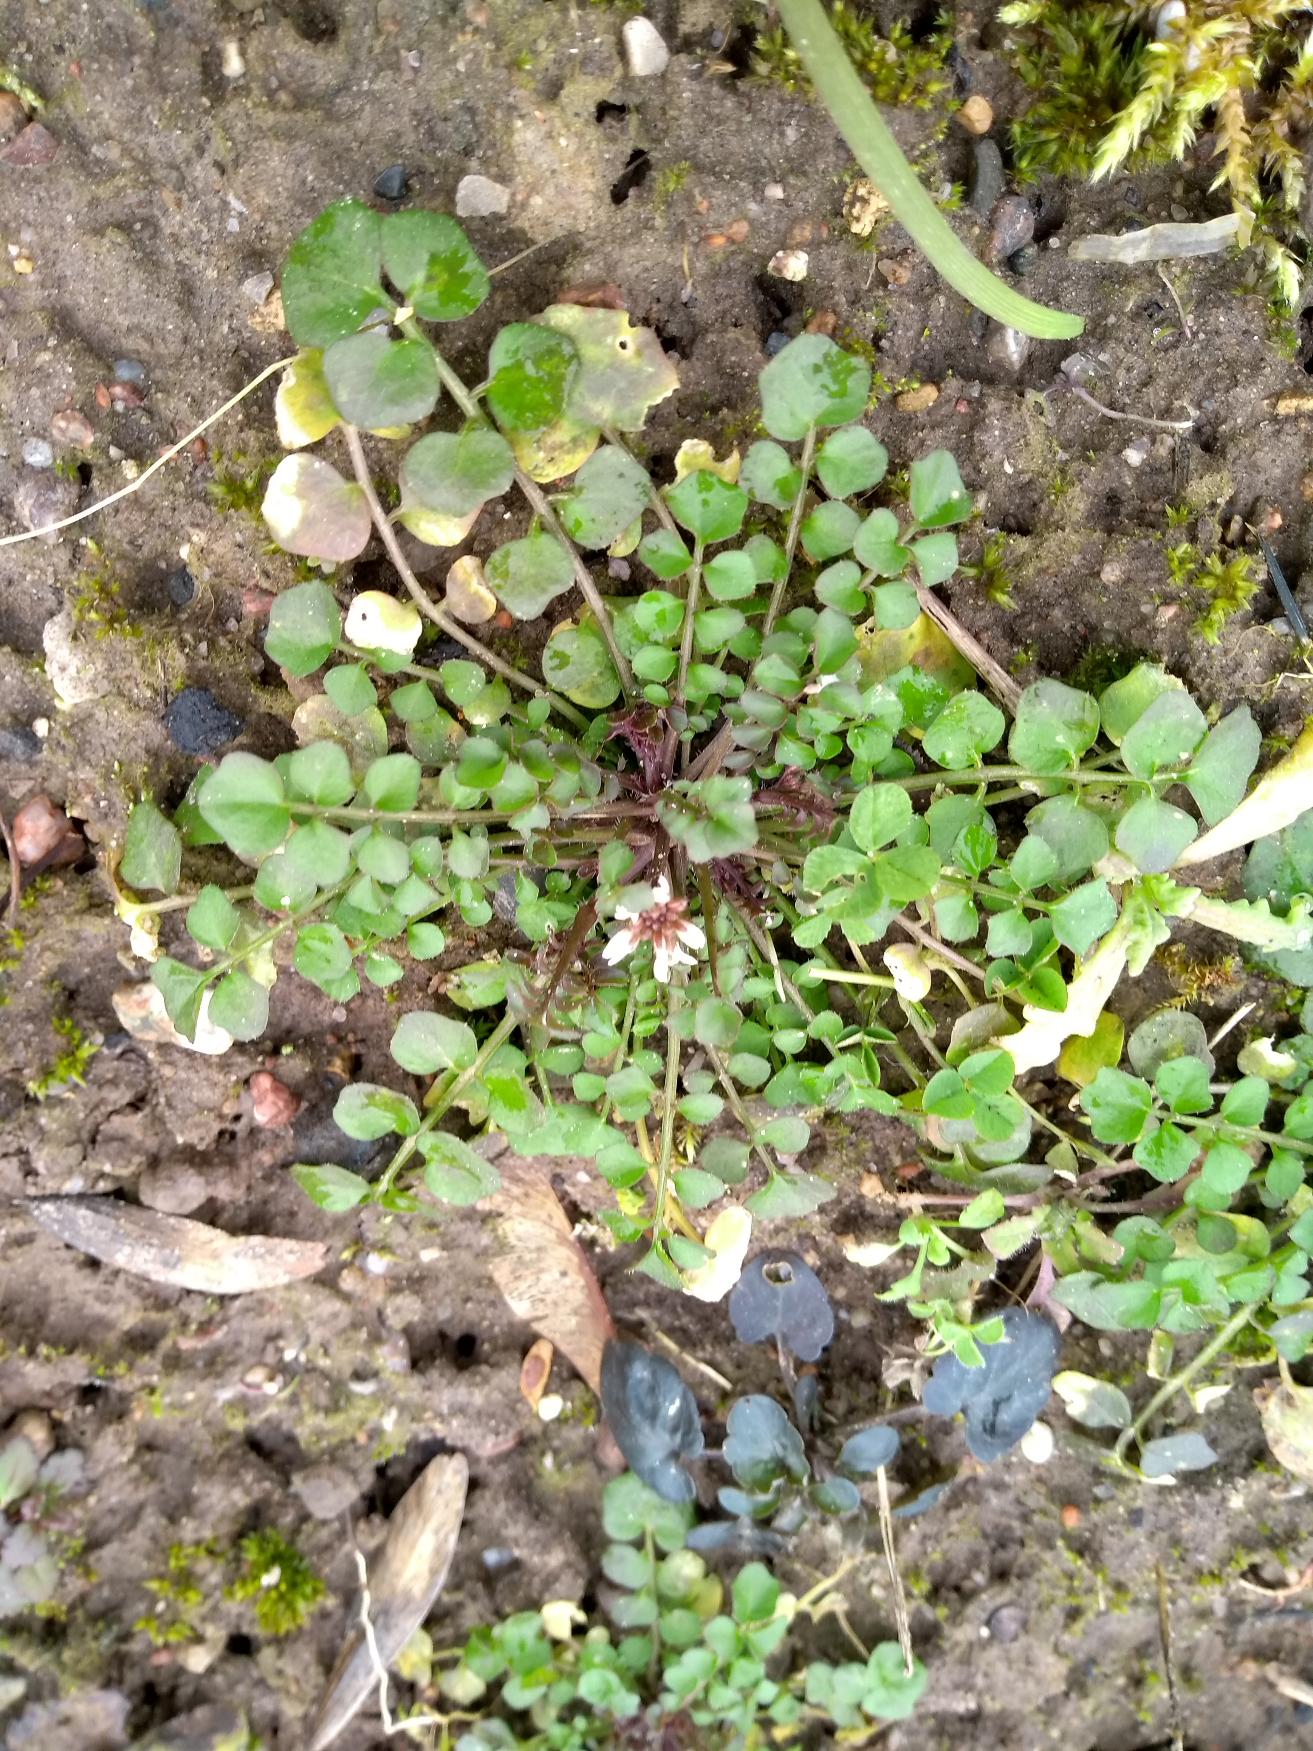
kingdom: Plantae
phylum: Tracheophyta
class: Magnoliopsida
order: Brassicales
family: Brassicaceae
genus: Cardamine
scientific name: Cardamine hirsuta
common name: Roset-springklap
